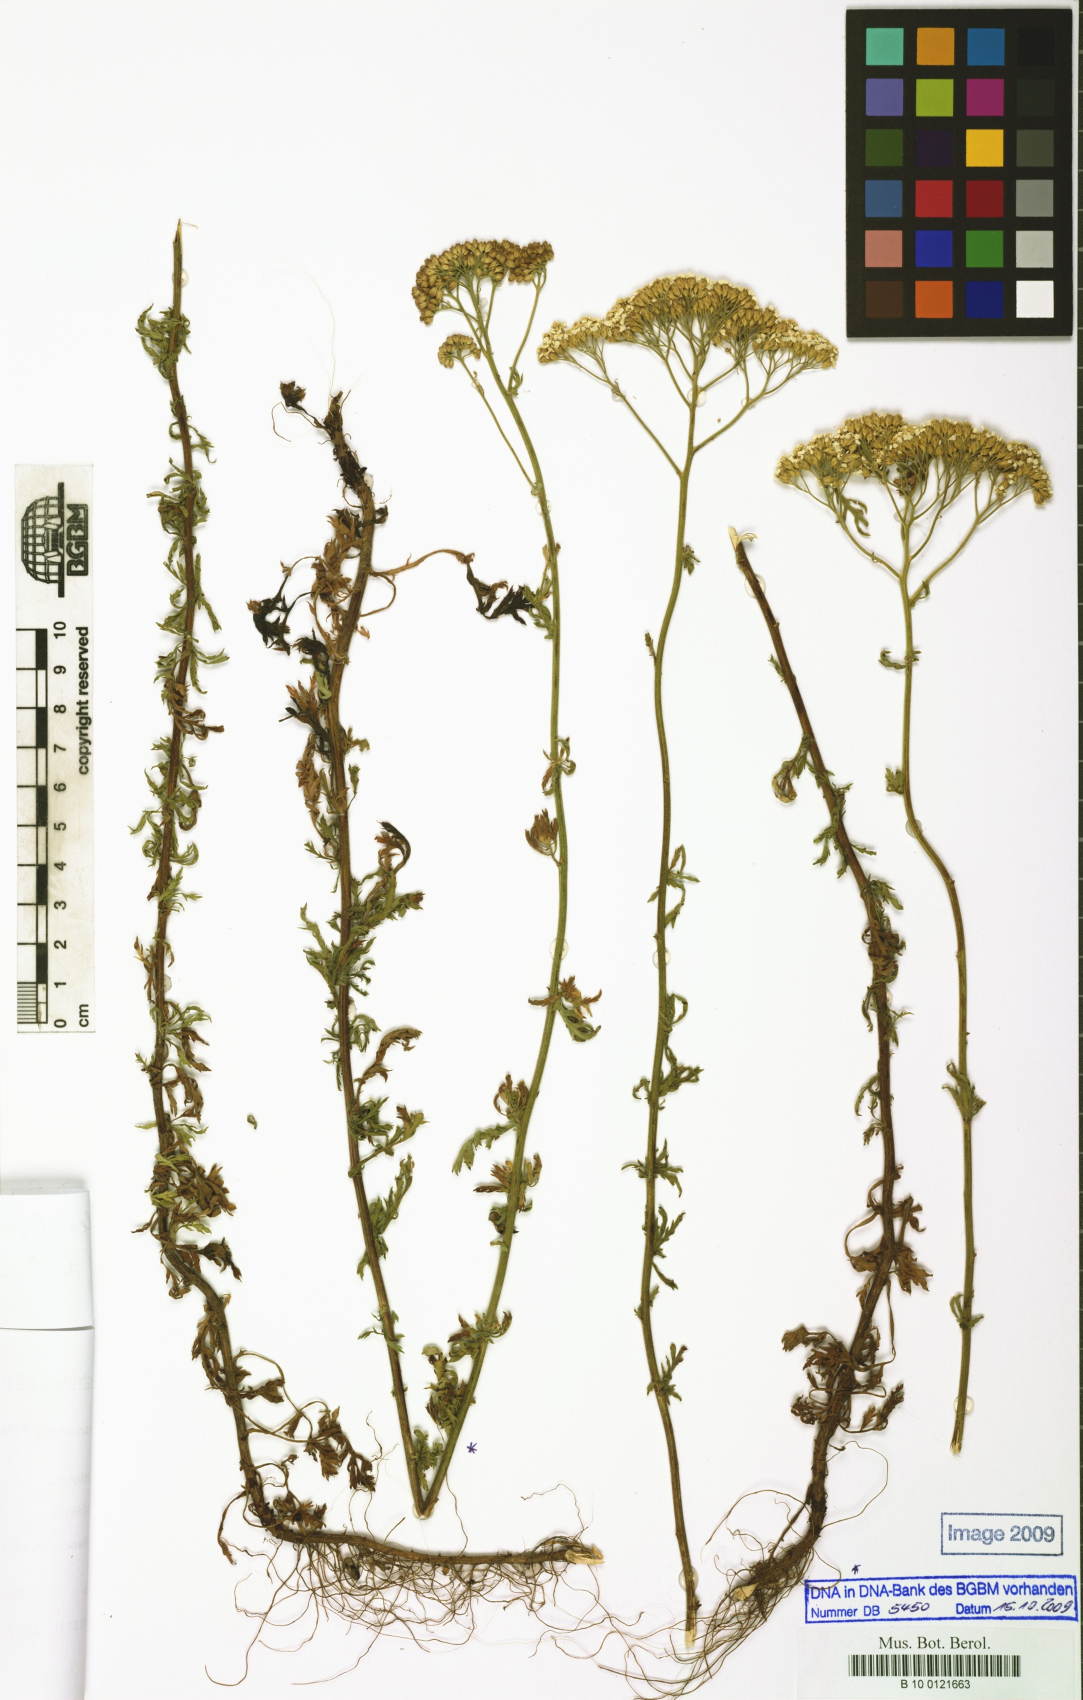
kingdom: Plantae
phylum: Tracheophyta
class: Magnoliopsida
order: Asterales
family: Asteraceae
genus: Achillea
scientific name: Achillea ligustica
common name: Southern yarrow
